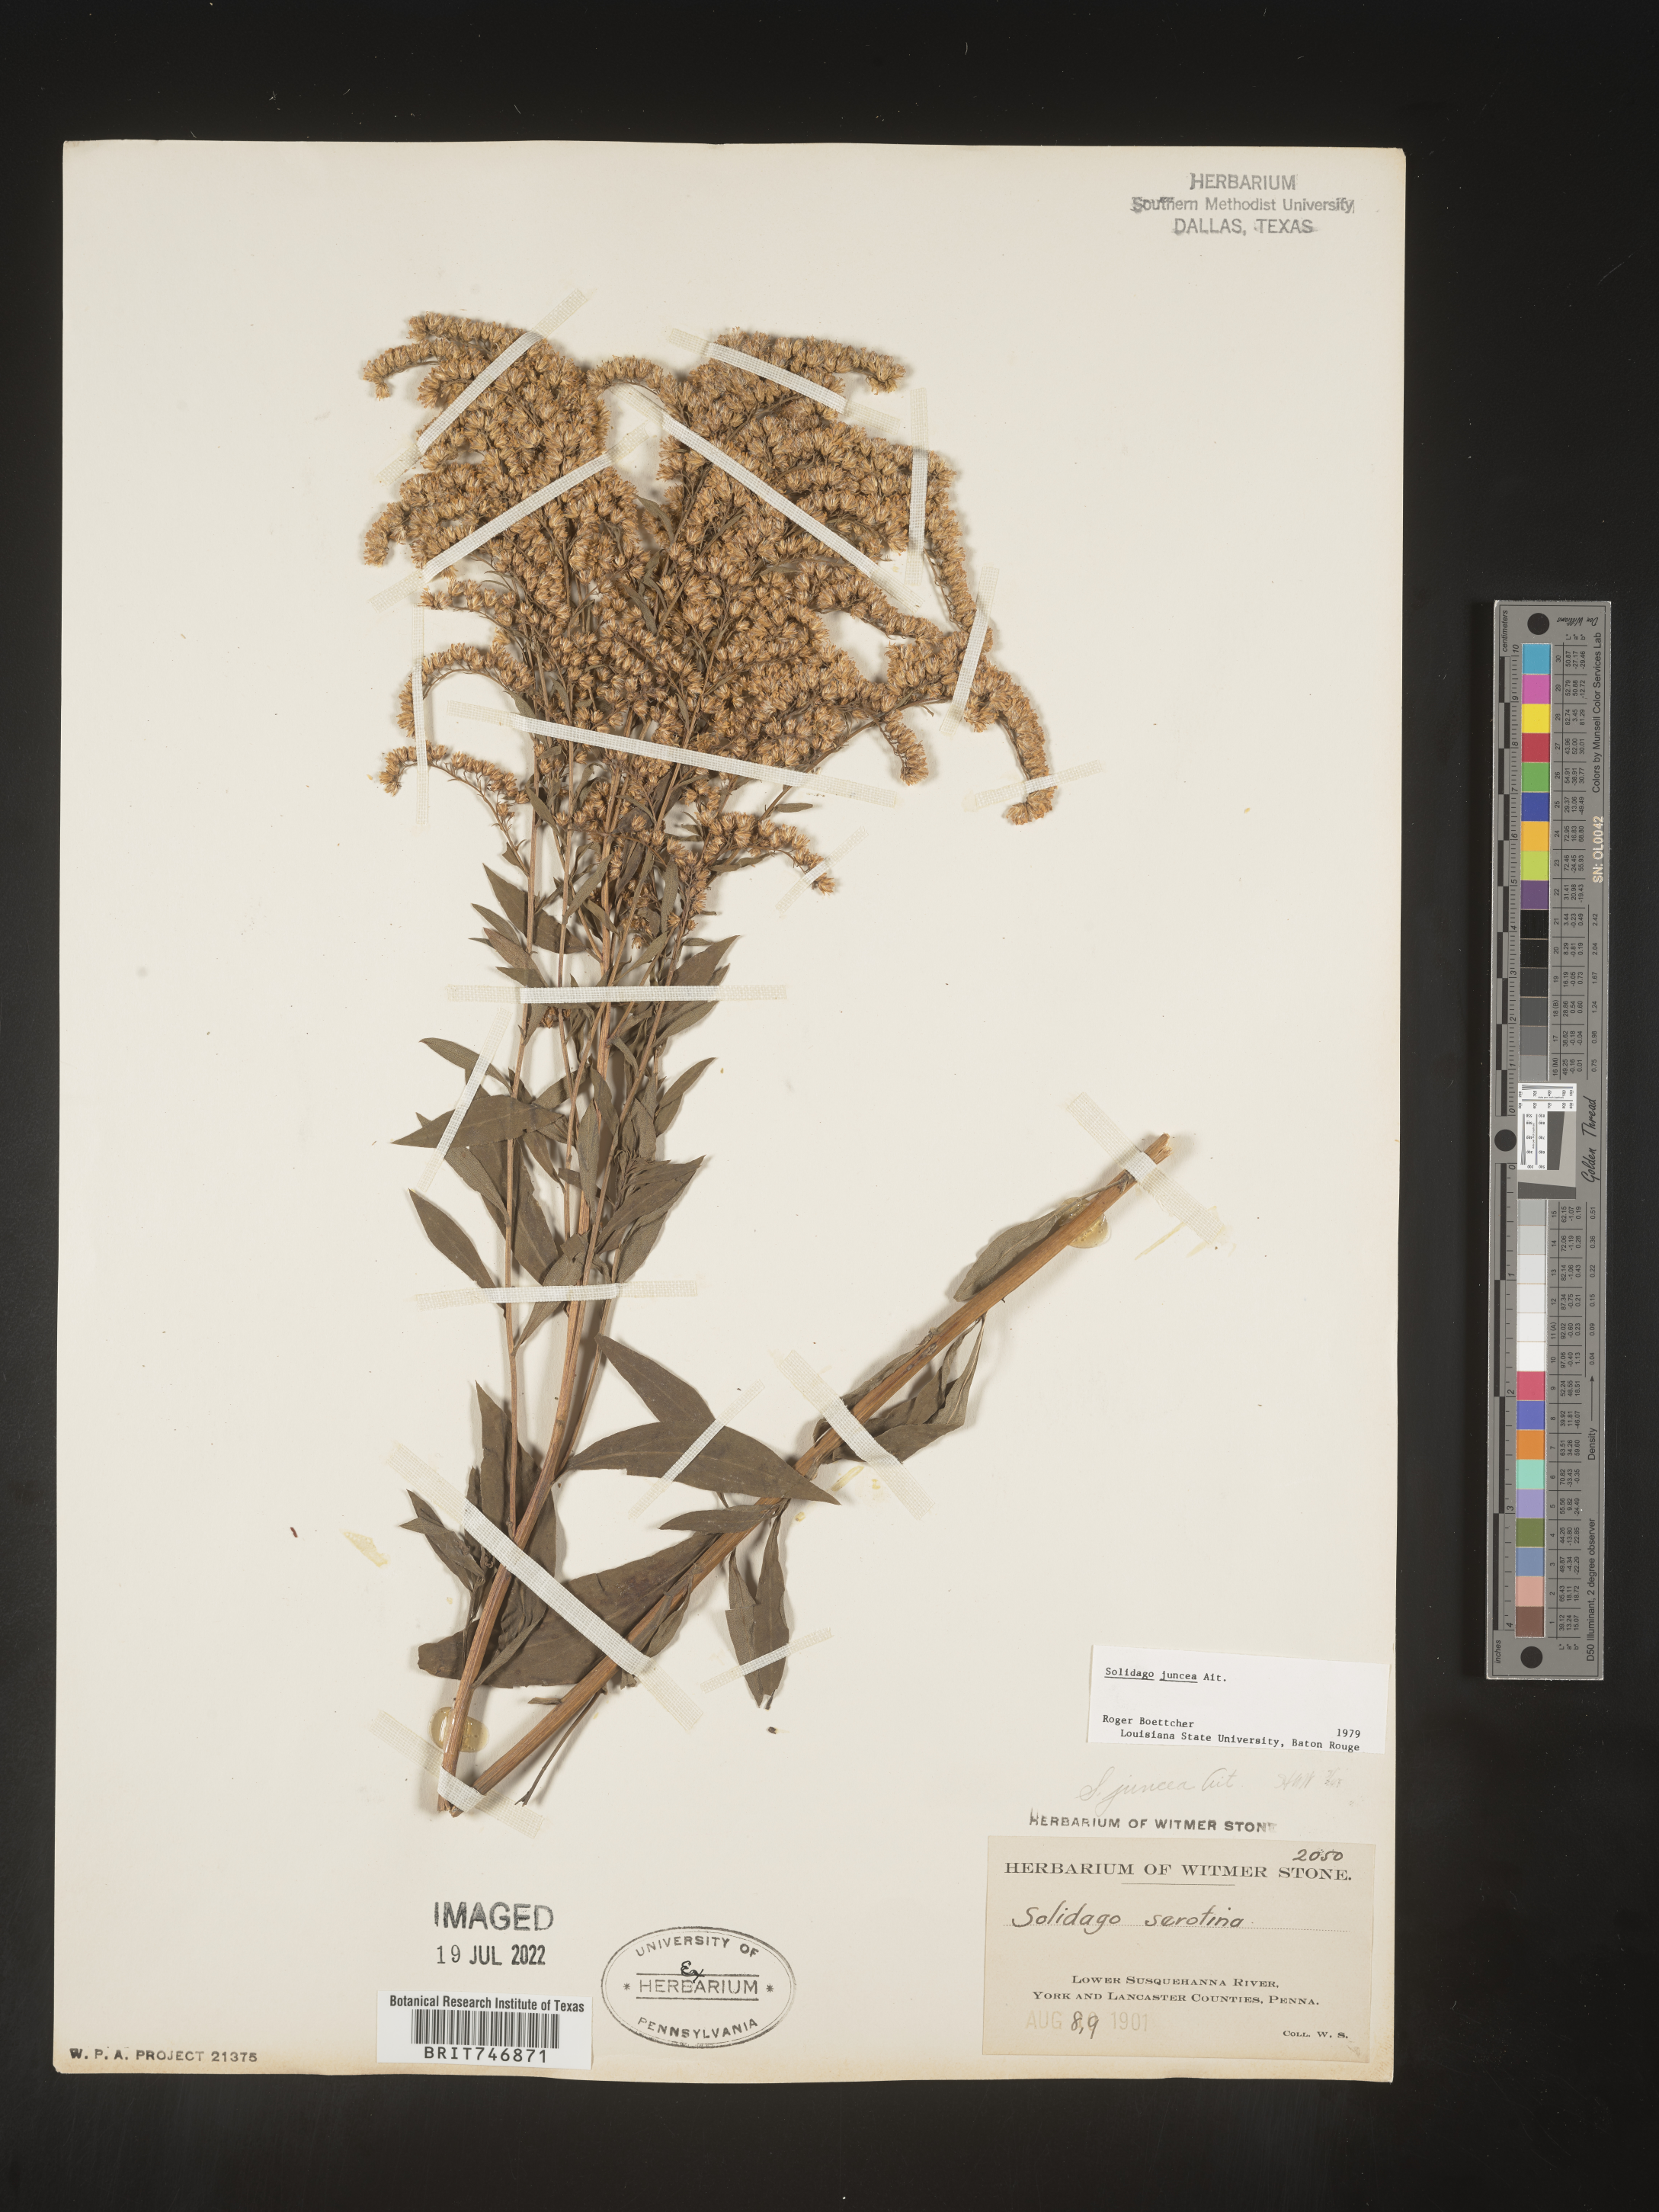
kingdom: Plantae
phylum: Tracheophyta
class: Magnoliopsida
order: Asterales
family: Asteraceae
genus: Solidago
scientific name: Solidago juncea
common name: Early goldenrod
